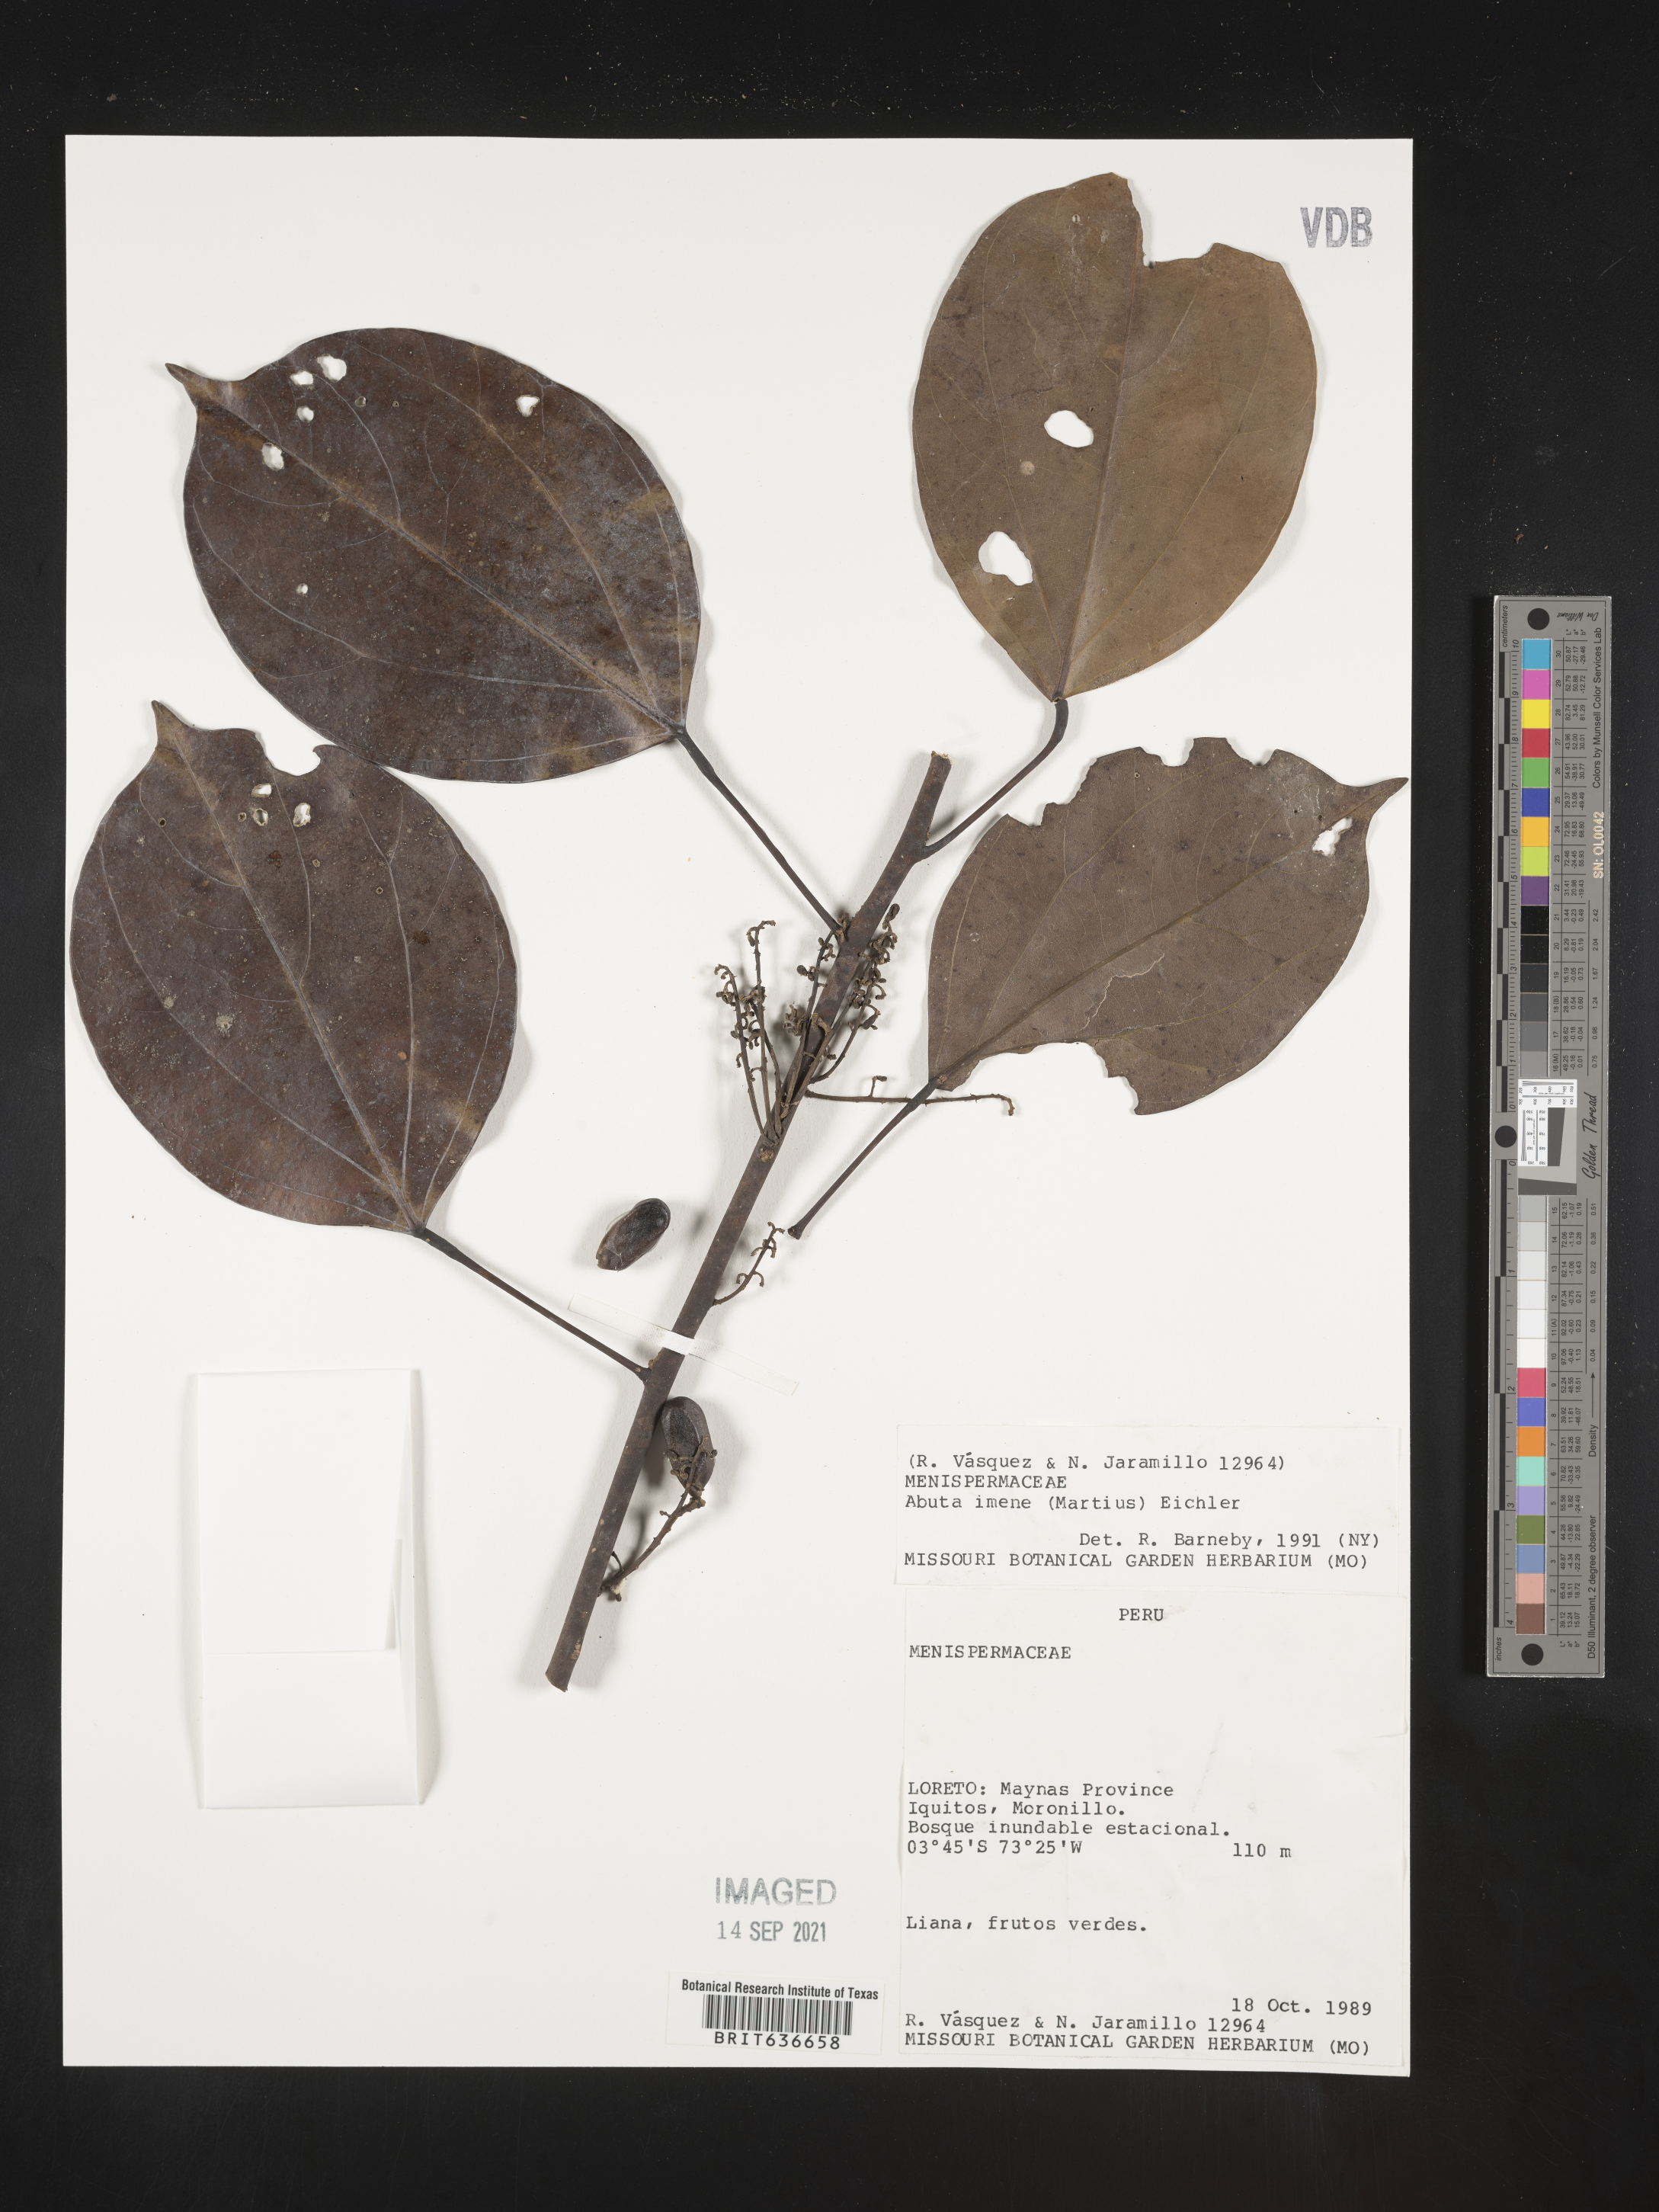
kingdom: Plantae
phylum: Tracheophyta
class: Magnoliopsida
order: Ranunculales
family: Menispermaceae
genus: Abuta
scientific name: Abuta
